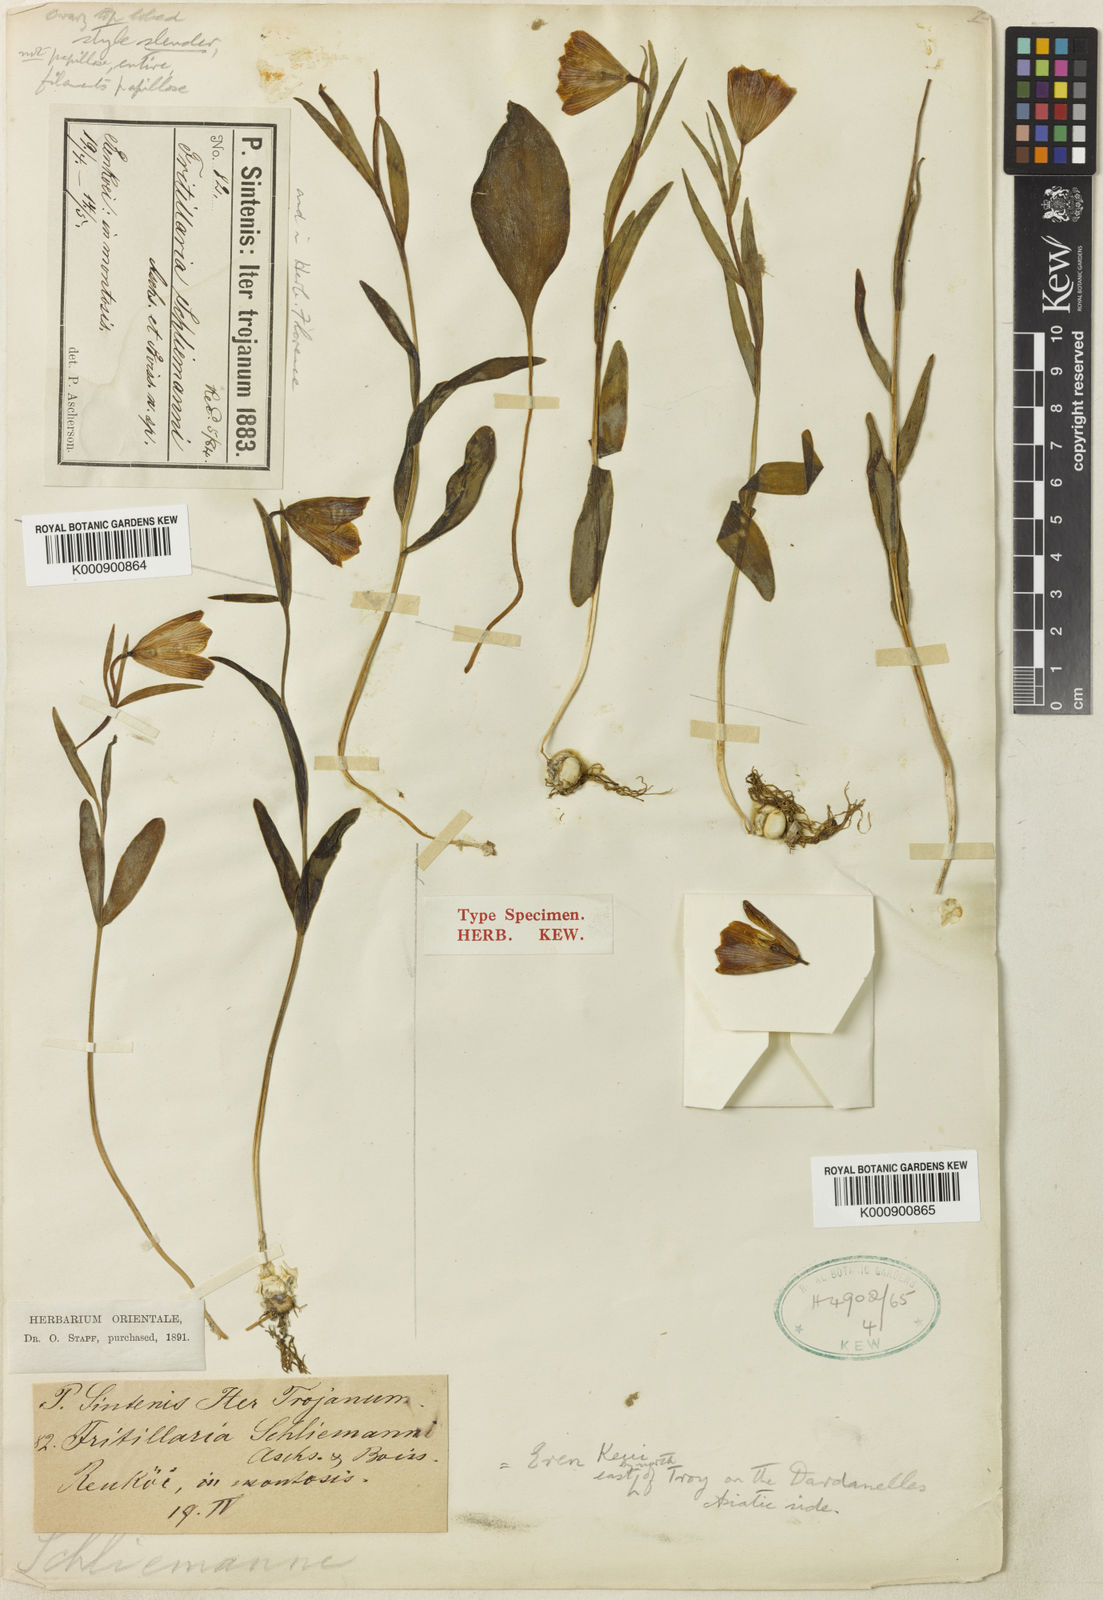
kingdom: Plantae
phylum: Tracheophyta
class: Liliopsida
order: Liliales
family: Liliaceae
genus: Fritillaria
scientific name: Fritillaria
